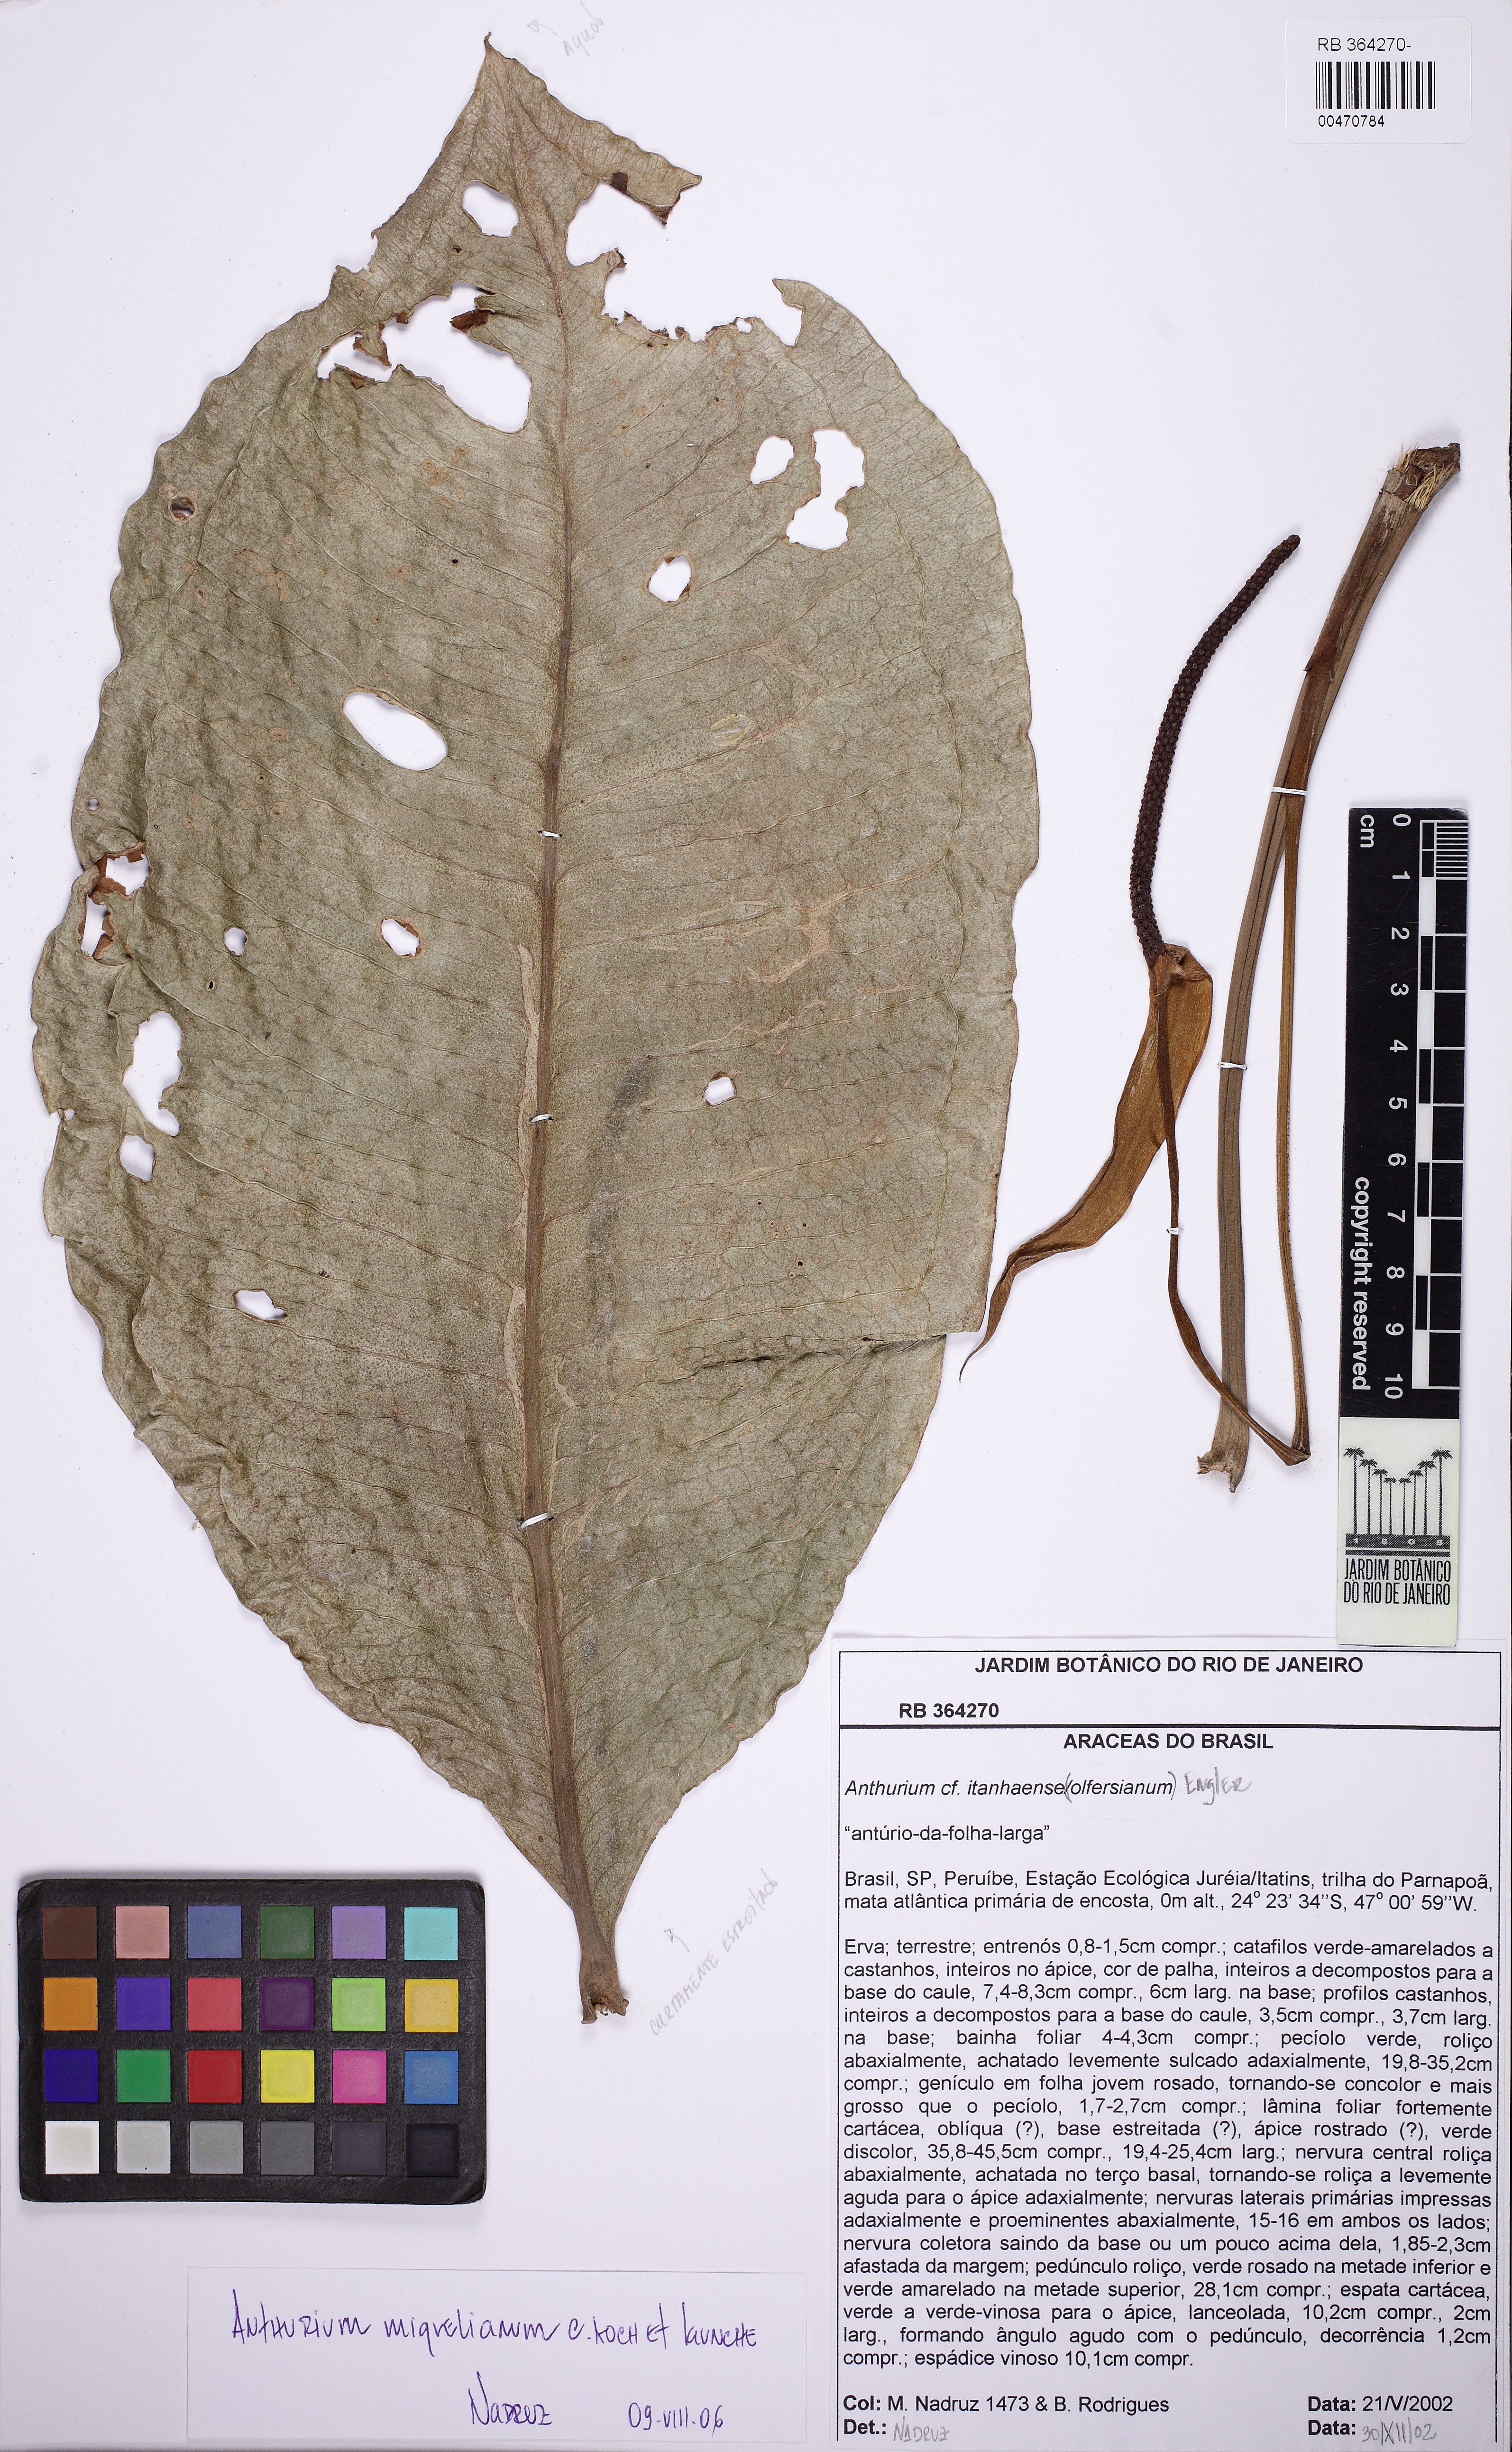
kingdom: Plantae
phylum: Tracheophyta
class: Liliopsida
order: Alismatales
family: Araceae
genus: Anthurium
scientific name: Anthurium parasiticum
